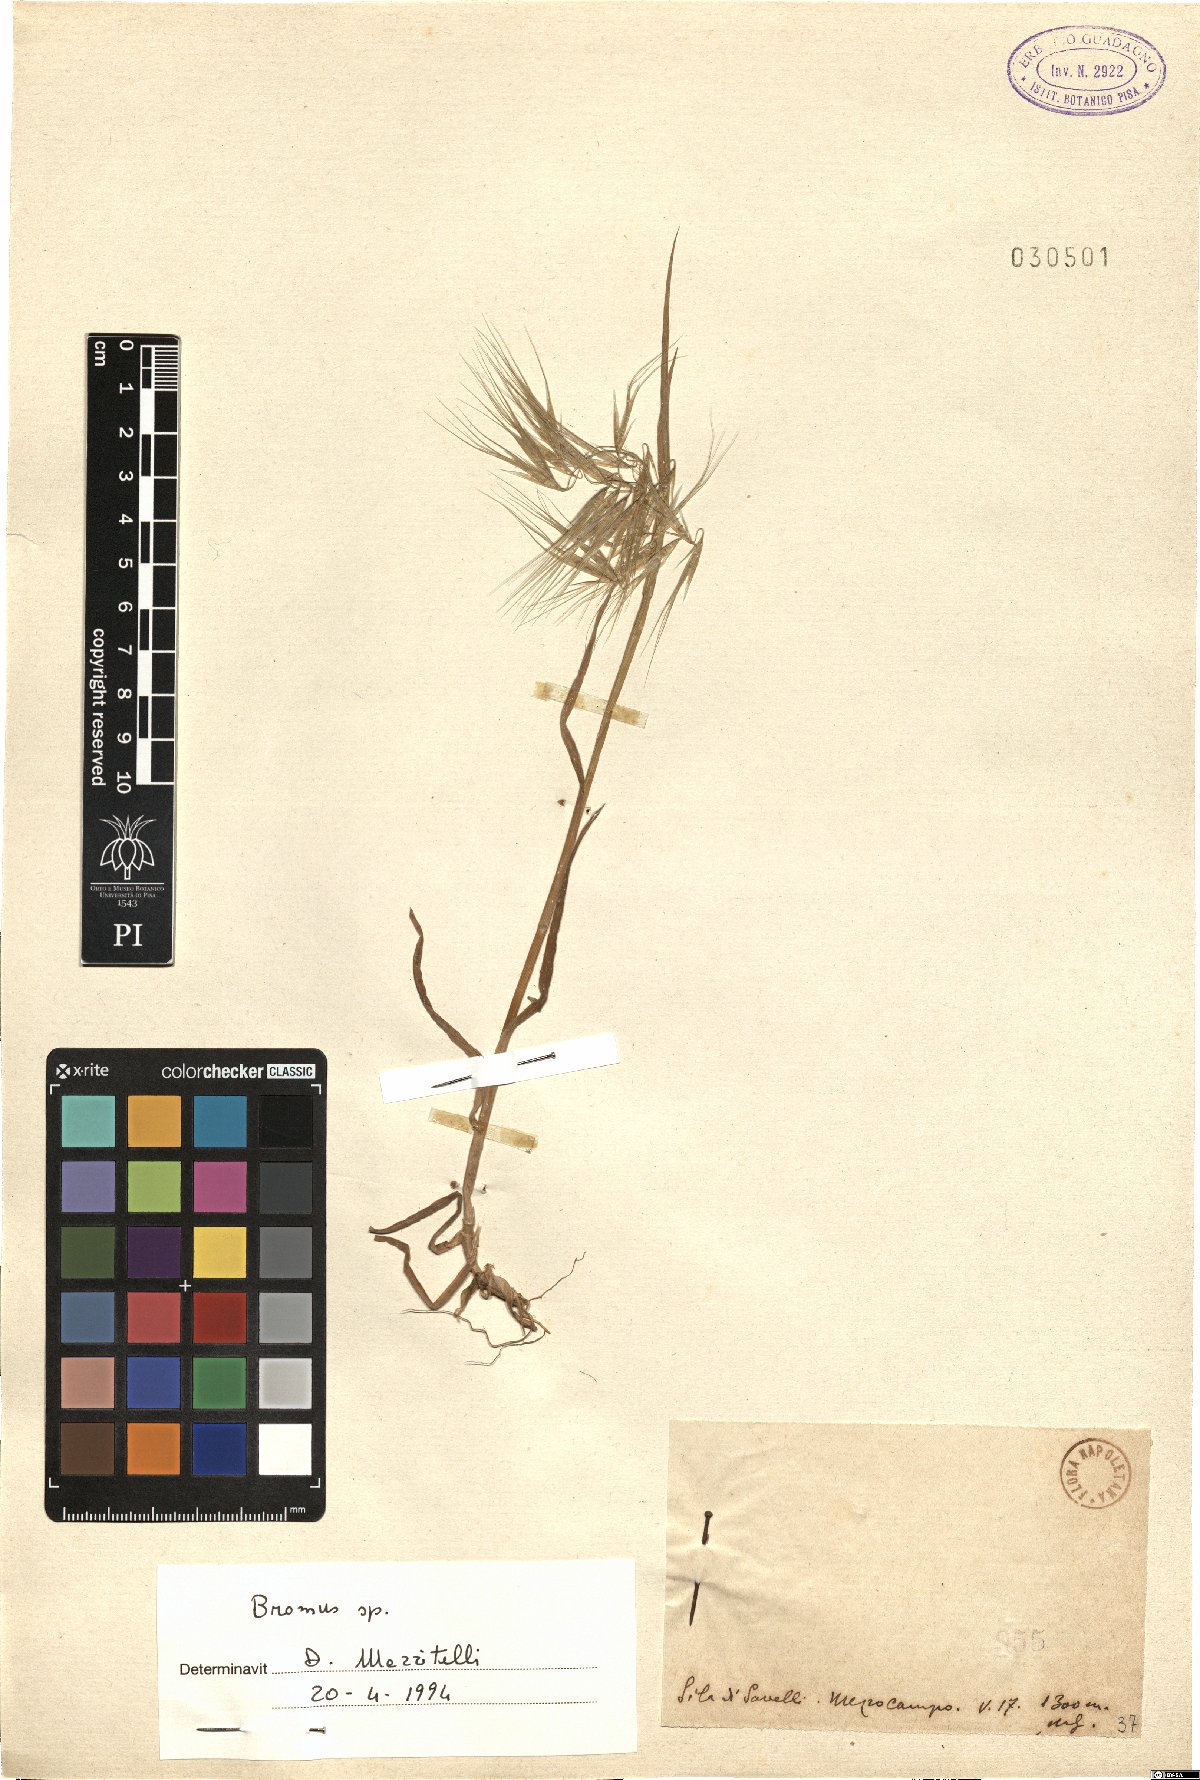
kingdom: Plantae
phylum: Tracheophyta
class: Liliopsida
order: Poales
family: Poaceae
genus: Bromus
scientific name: Bromus
